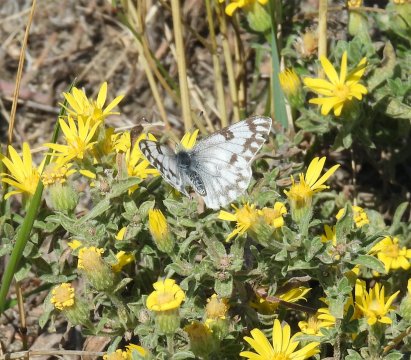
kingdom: Animalia
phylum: Arthropoda
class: Insecta
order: Lepidoptera
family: Pieridae
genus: Pontia
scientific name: Pontia occidentalis
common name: Western White
